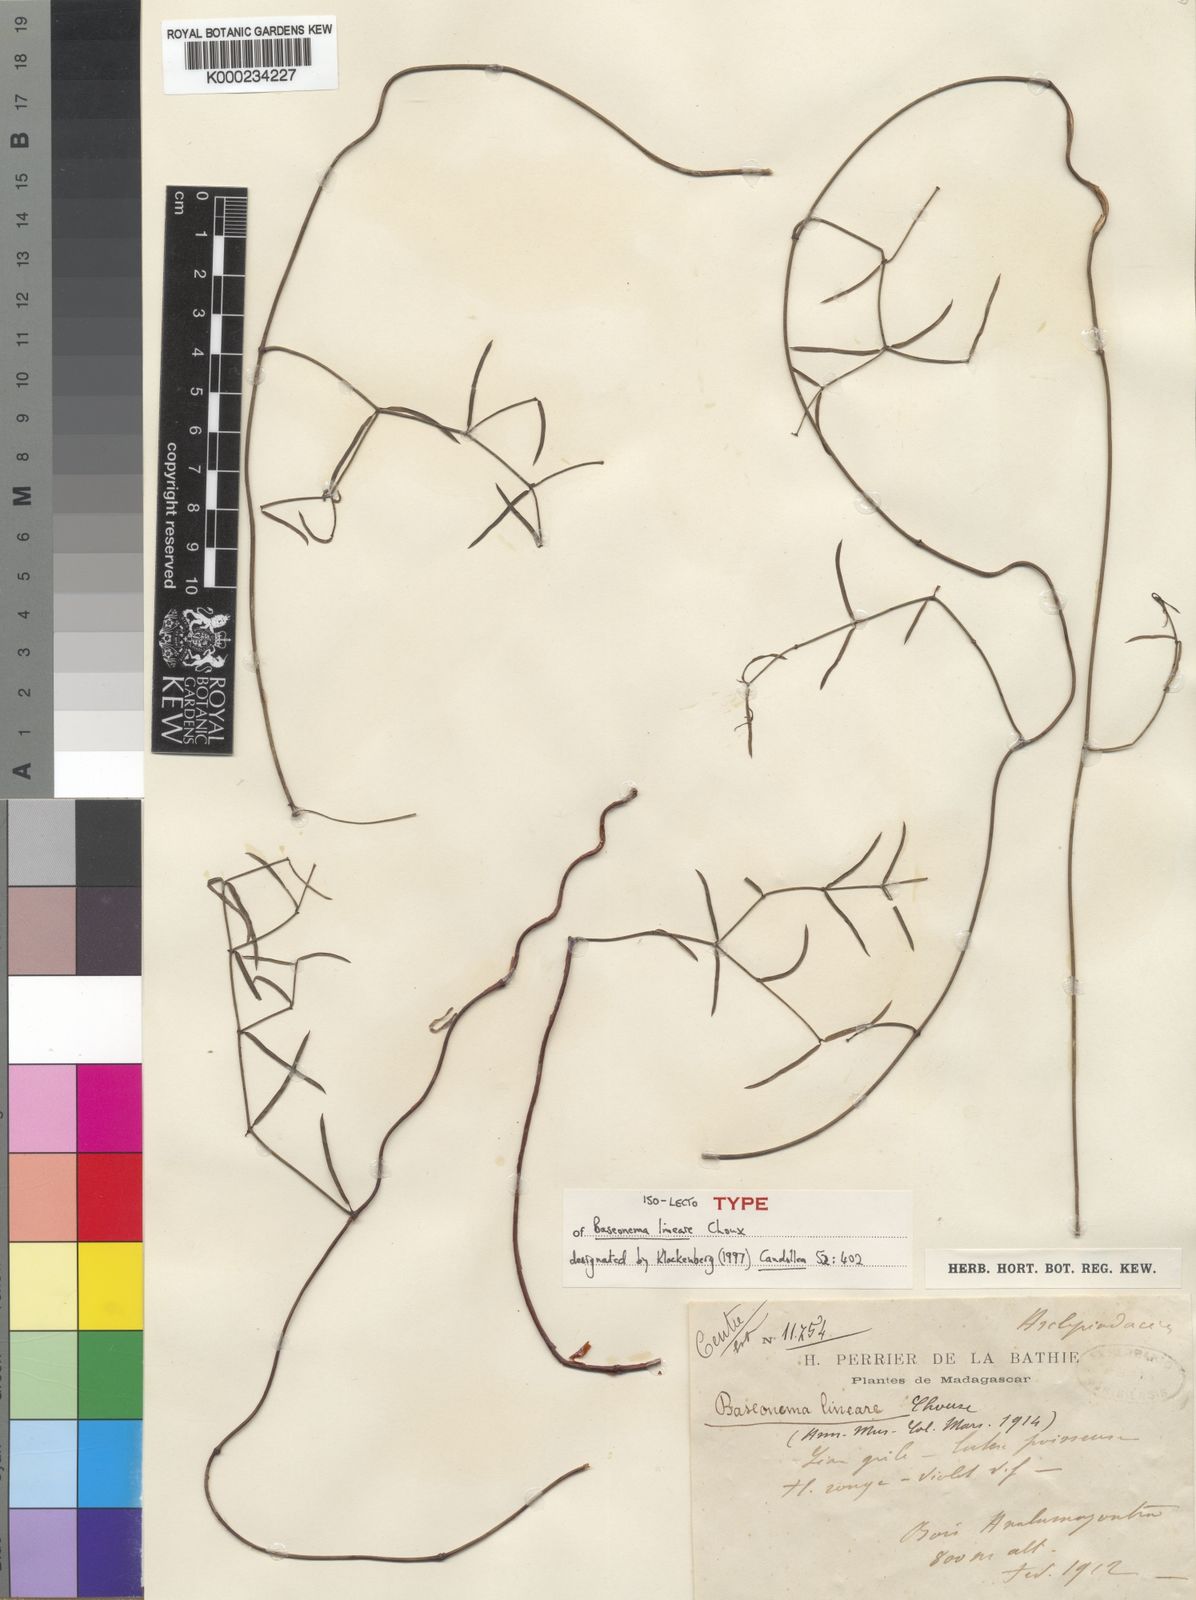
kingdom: Plantae
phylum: Tracheophyta
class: Magnoliopsida
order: Gentianales
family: Apocynaceae
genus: Baroniella
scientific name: Baroniella linearis
